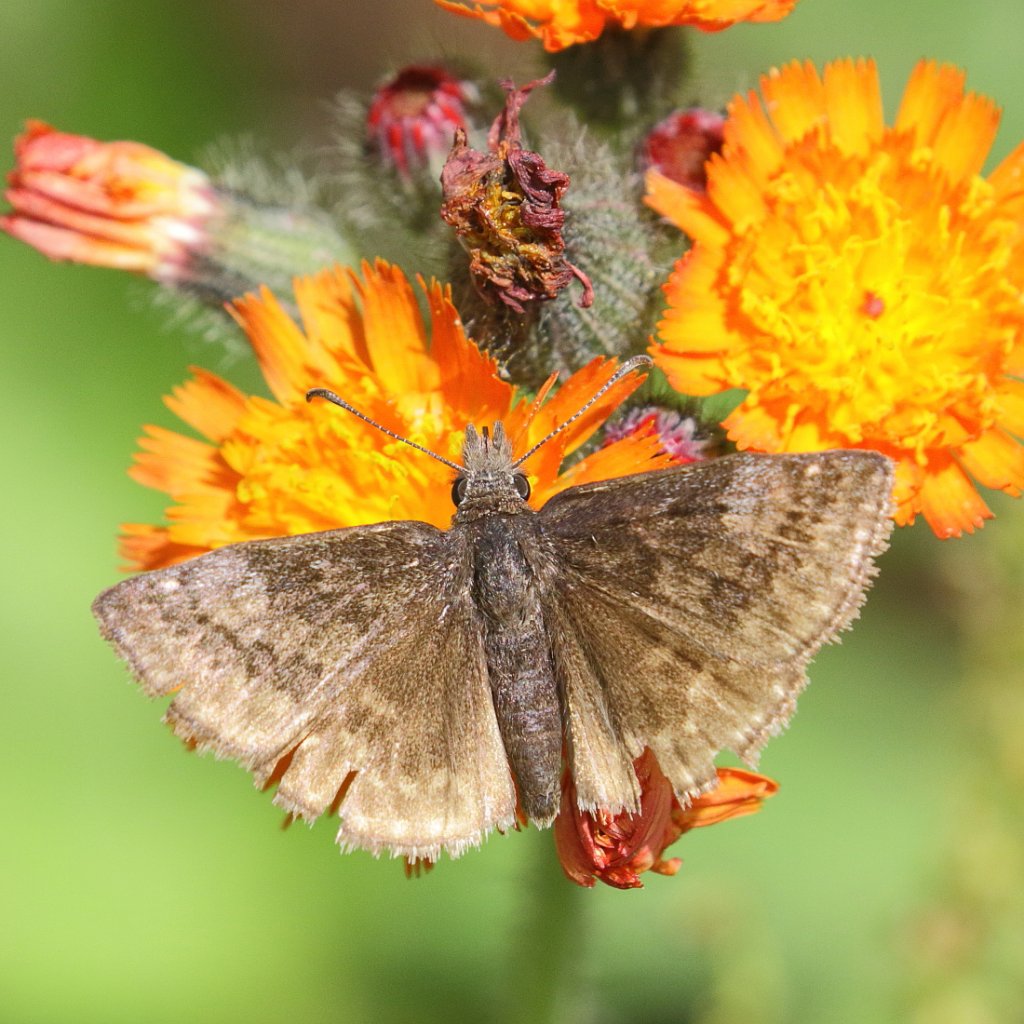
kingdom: Animalia
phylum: Arthropoda
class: Insecta
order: Lepidoptera
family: Hesperiidae
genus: Erynnis
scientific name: Erynnis icelus
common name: Dreamy Duskywing
